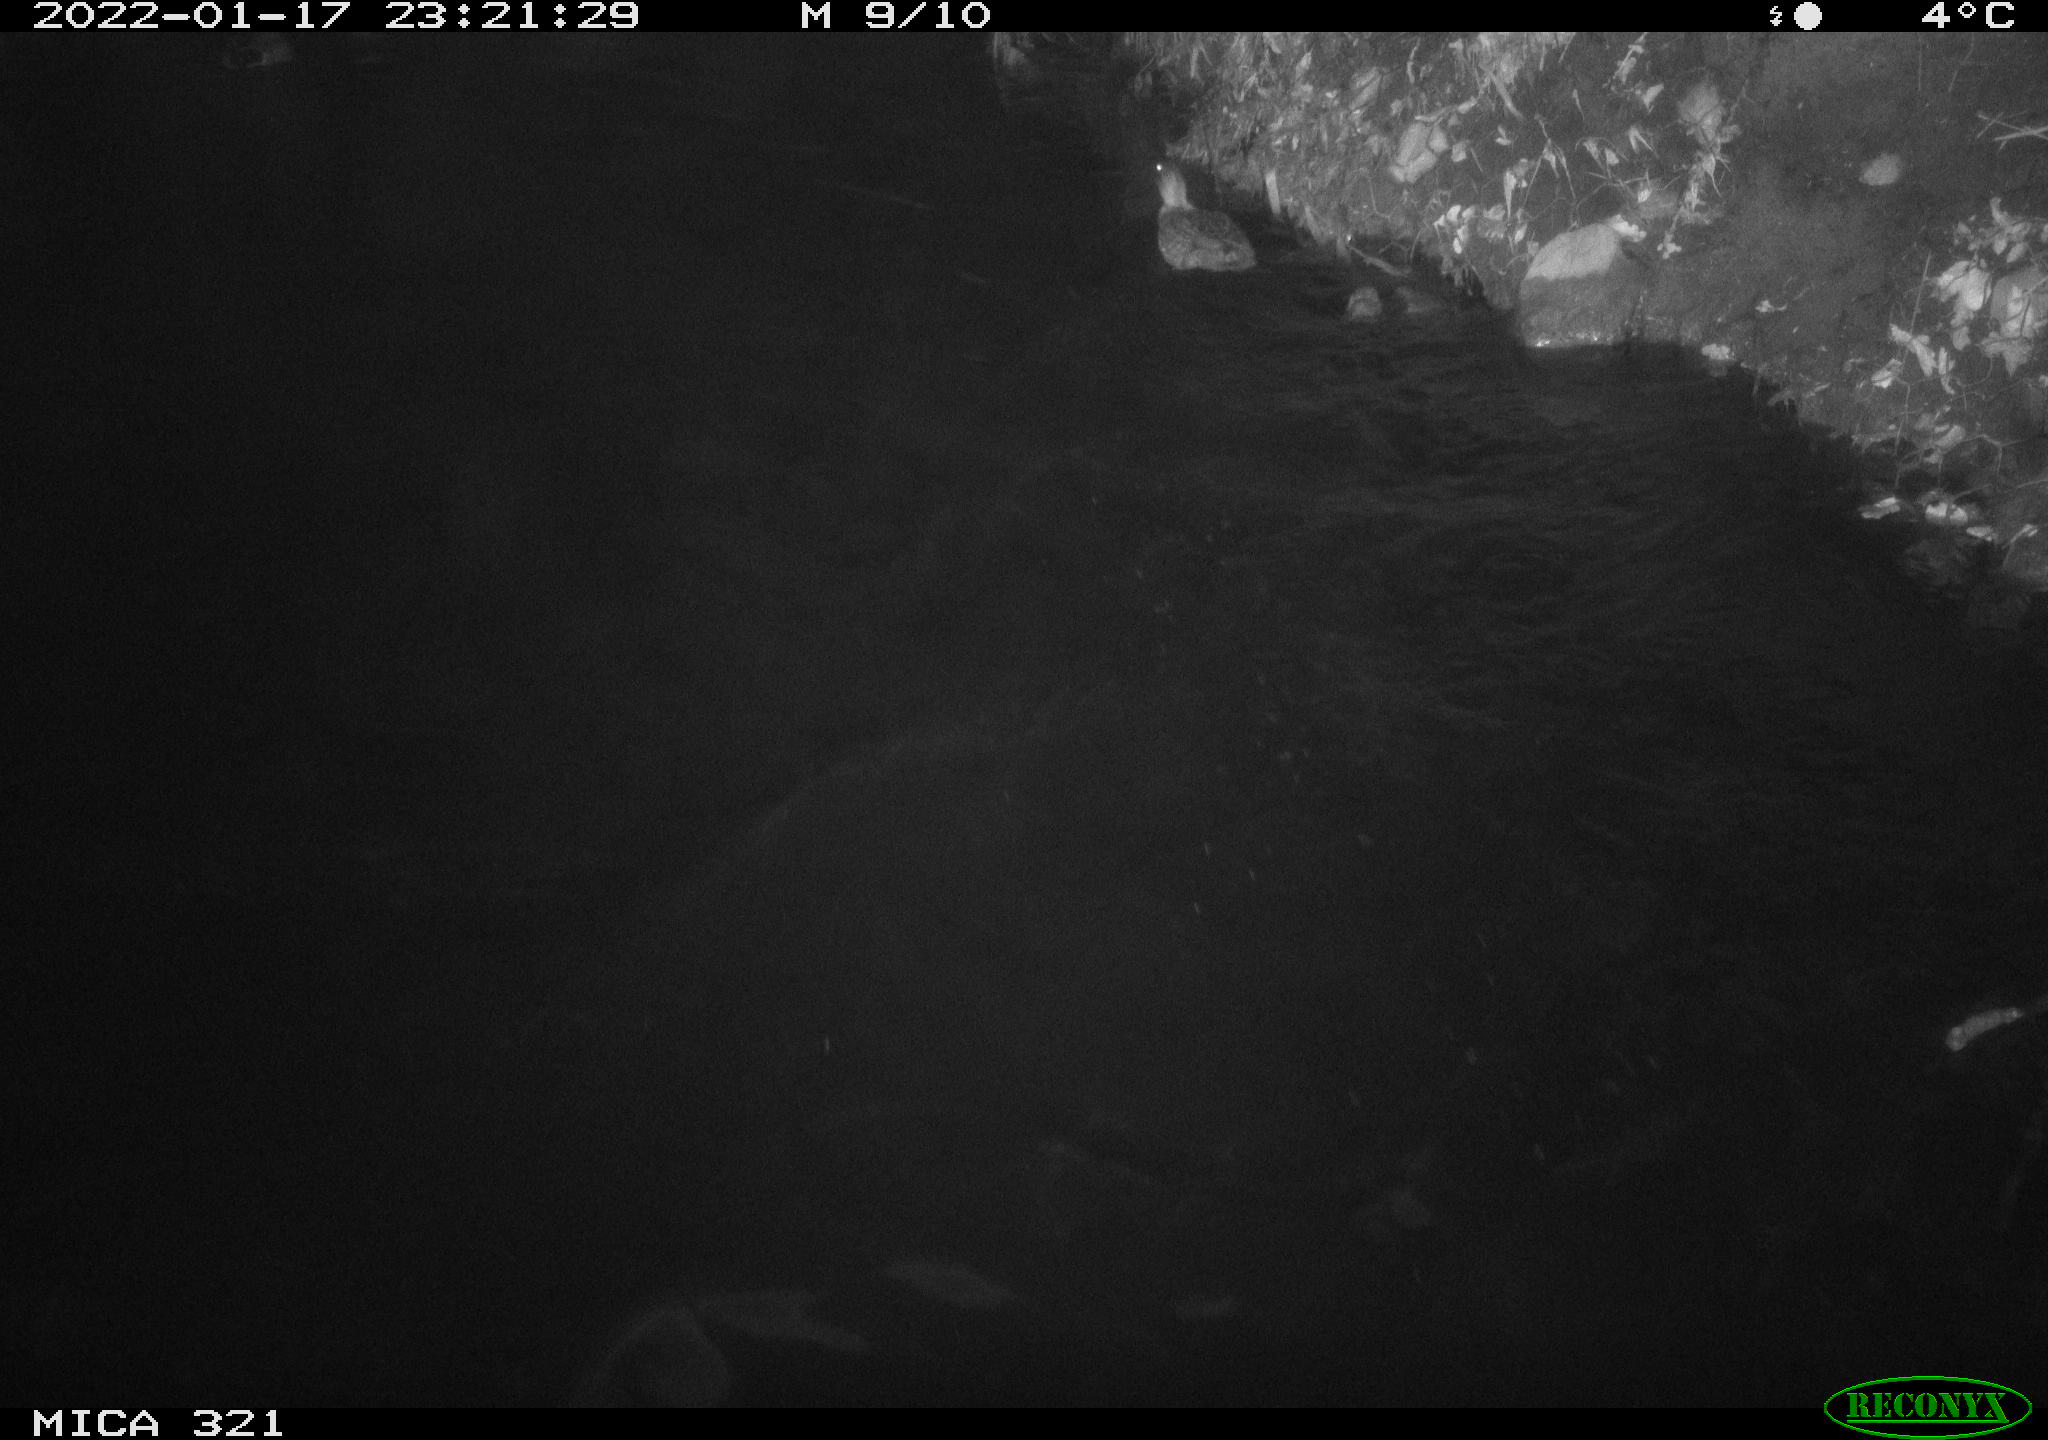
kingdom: Animalia
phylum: Chordata
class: Aves
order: Anseriformes
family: Anatidae
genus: Anas
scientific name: Anas
